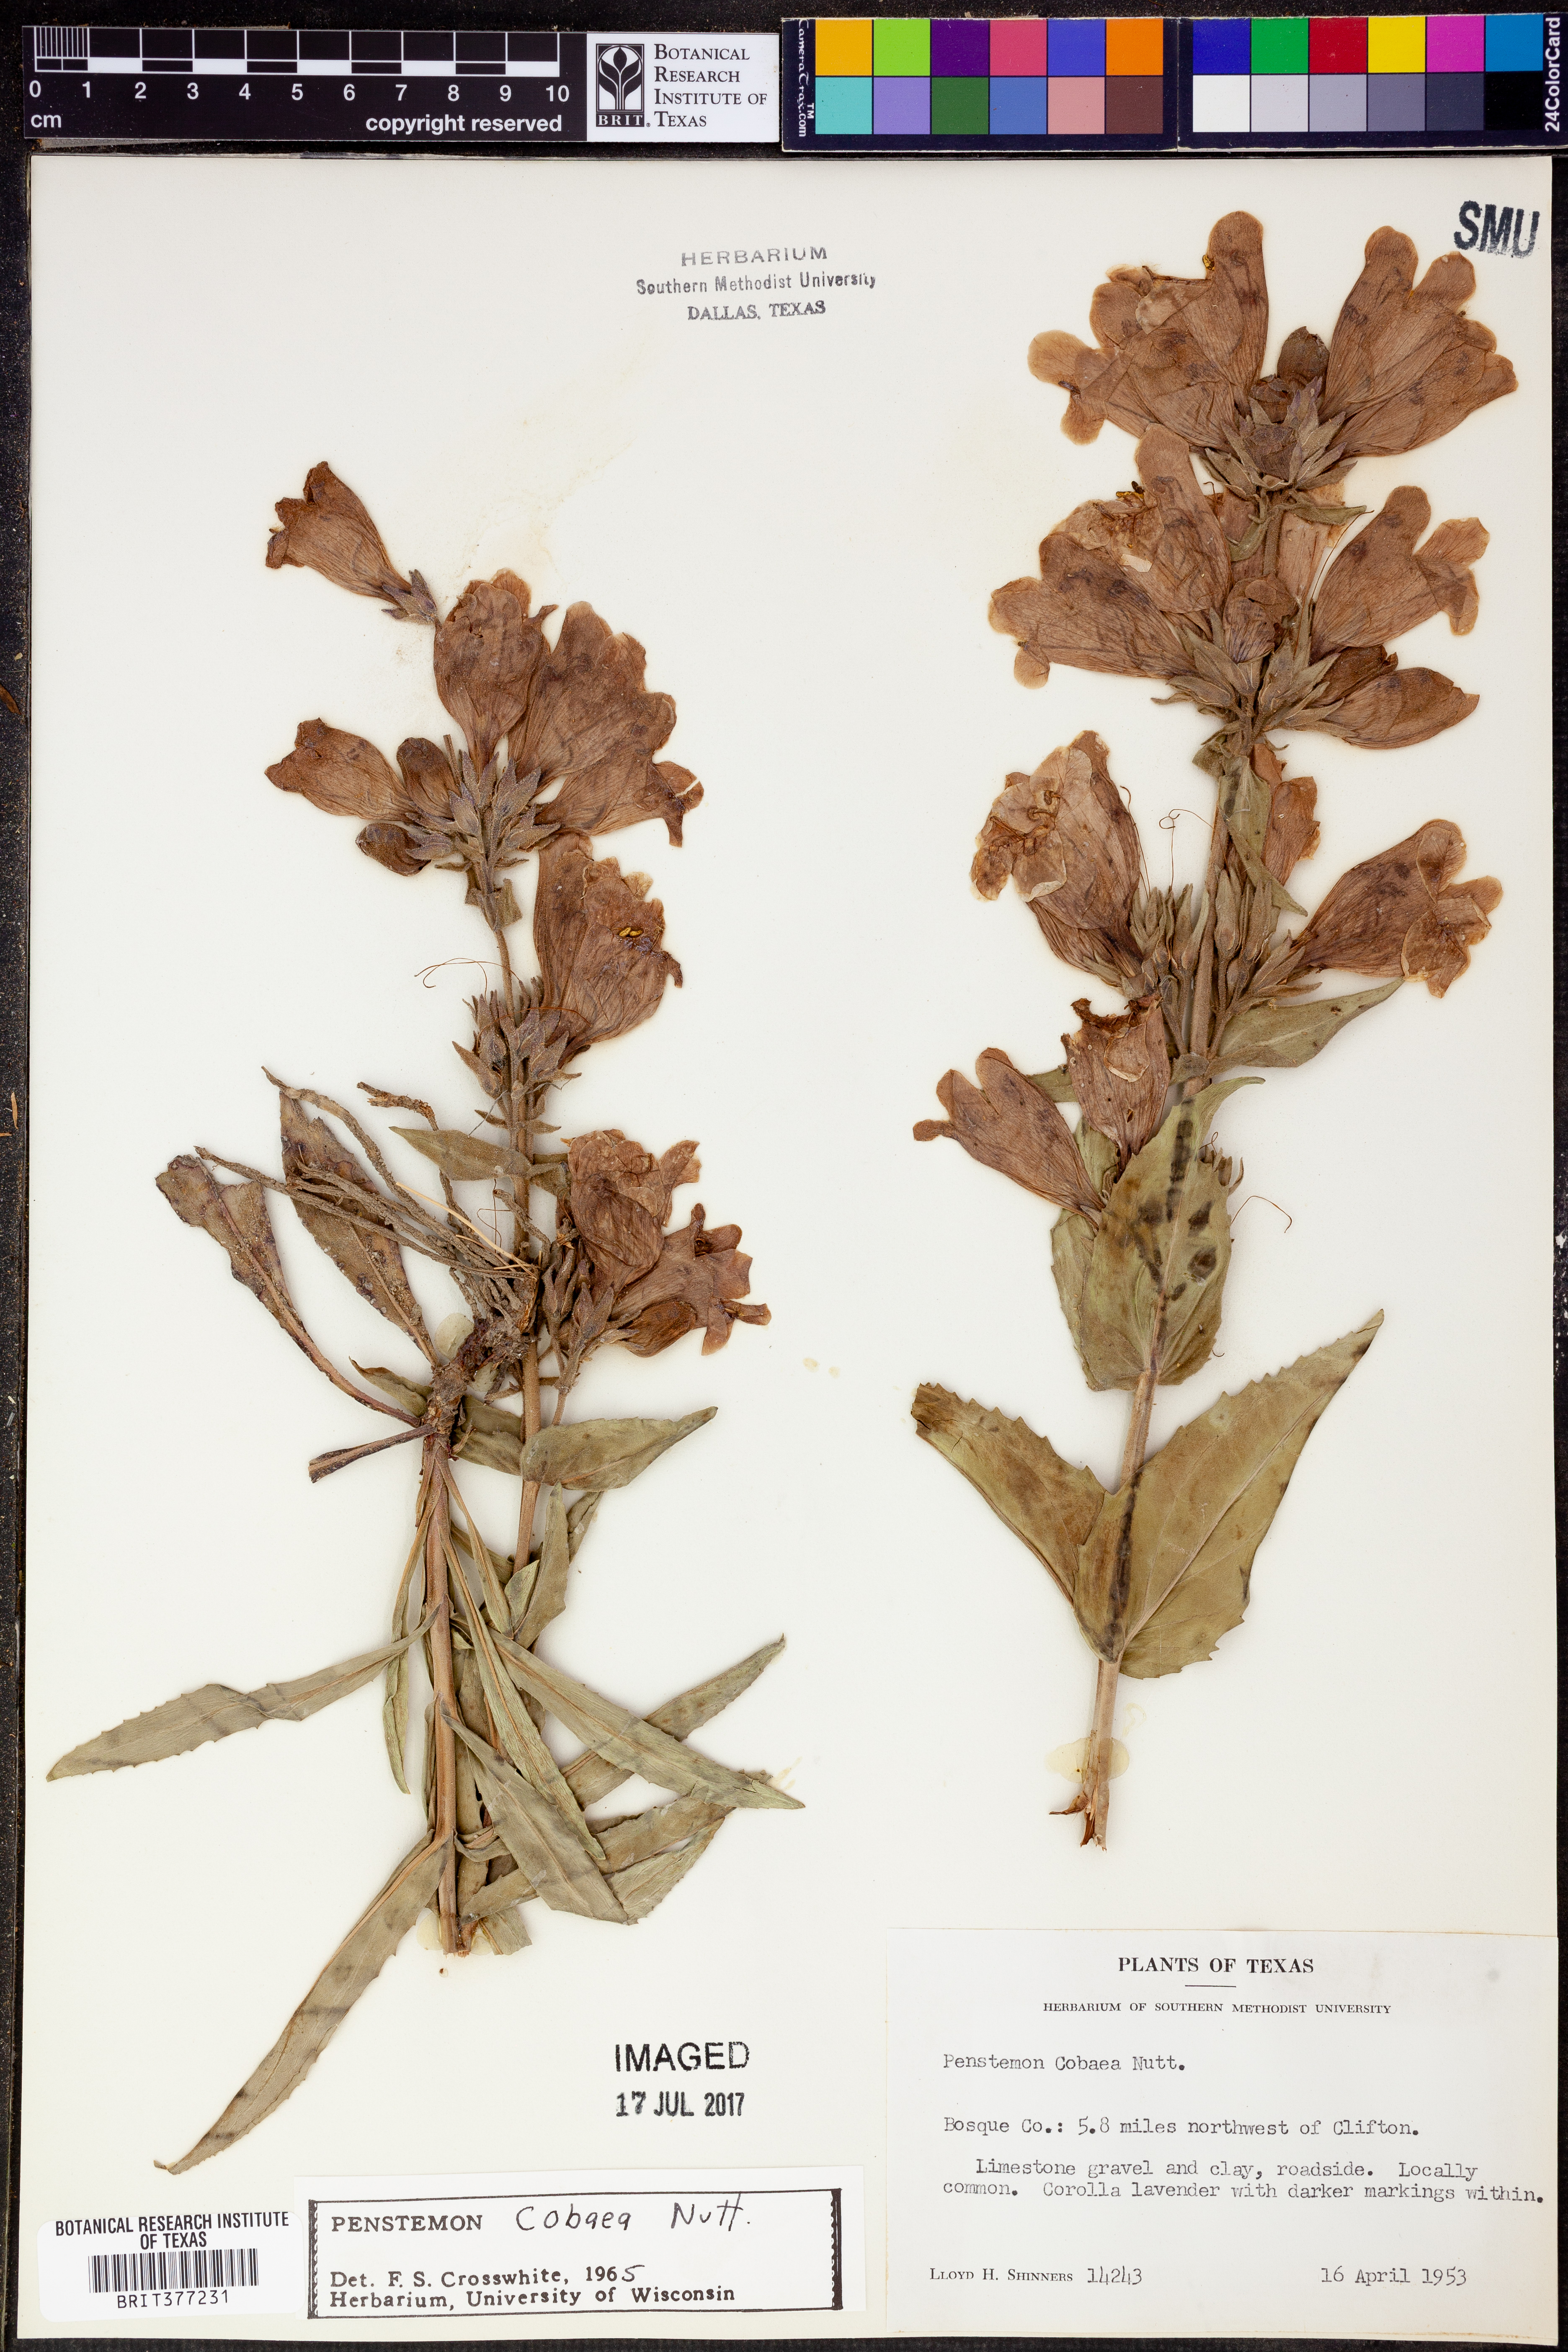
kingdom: Plantae
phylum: Tracheophyta
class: Magnoliopsida
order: Lamiales
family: Plantaginaceae
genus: Penstemon
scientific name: Penstemon cobaea
